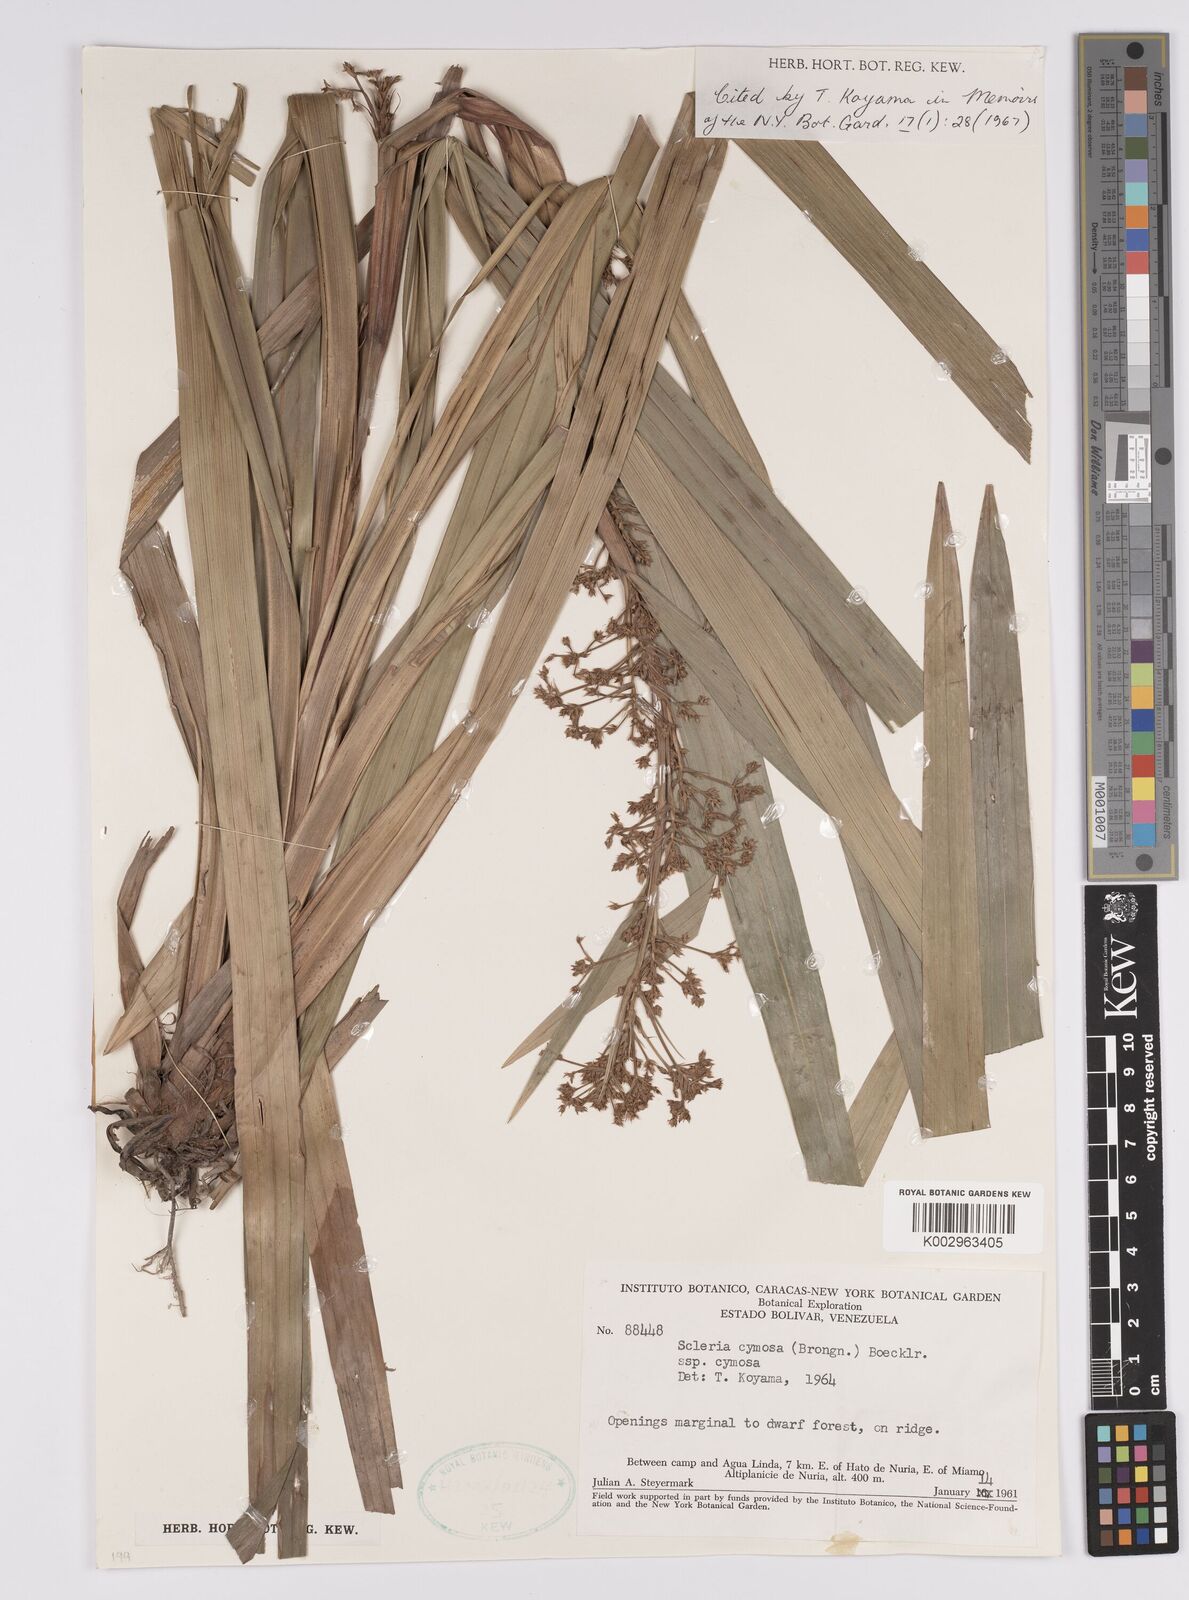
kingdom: Plantae
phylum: Tracheophyta
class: Liliopsida
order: Poales
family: Cyperaceae
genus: Becquerelia
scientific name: Becquerelia cymosa
